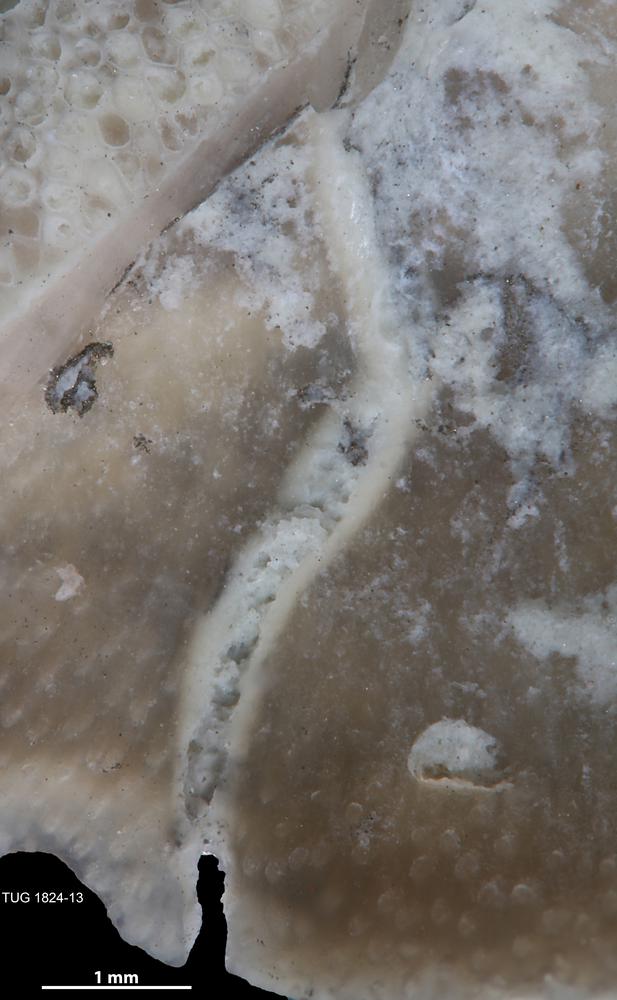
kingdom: Animalia
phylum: Brachiopoda
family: Sowerbyellidae
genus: Sowerbyella
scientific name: Sowerbyella
